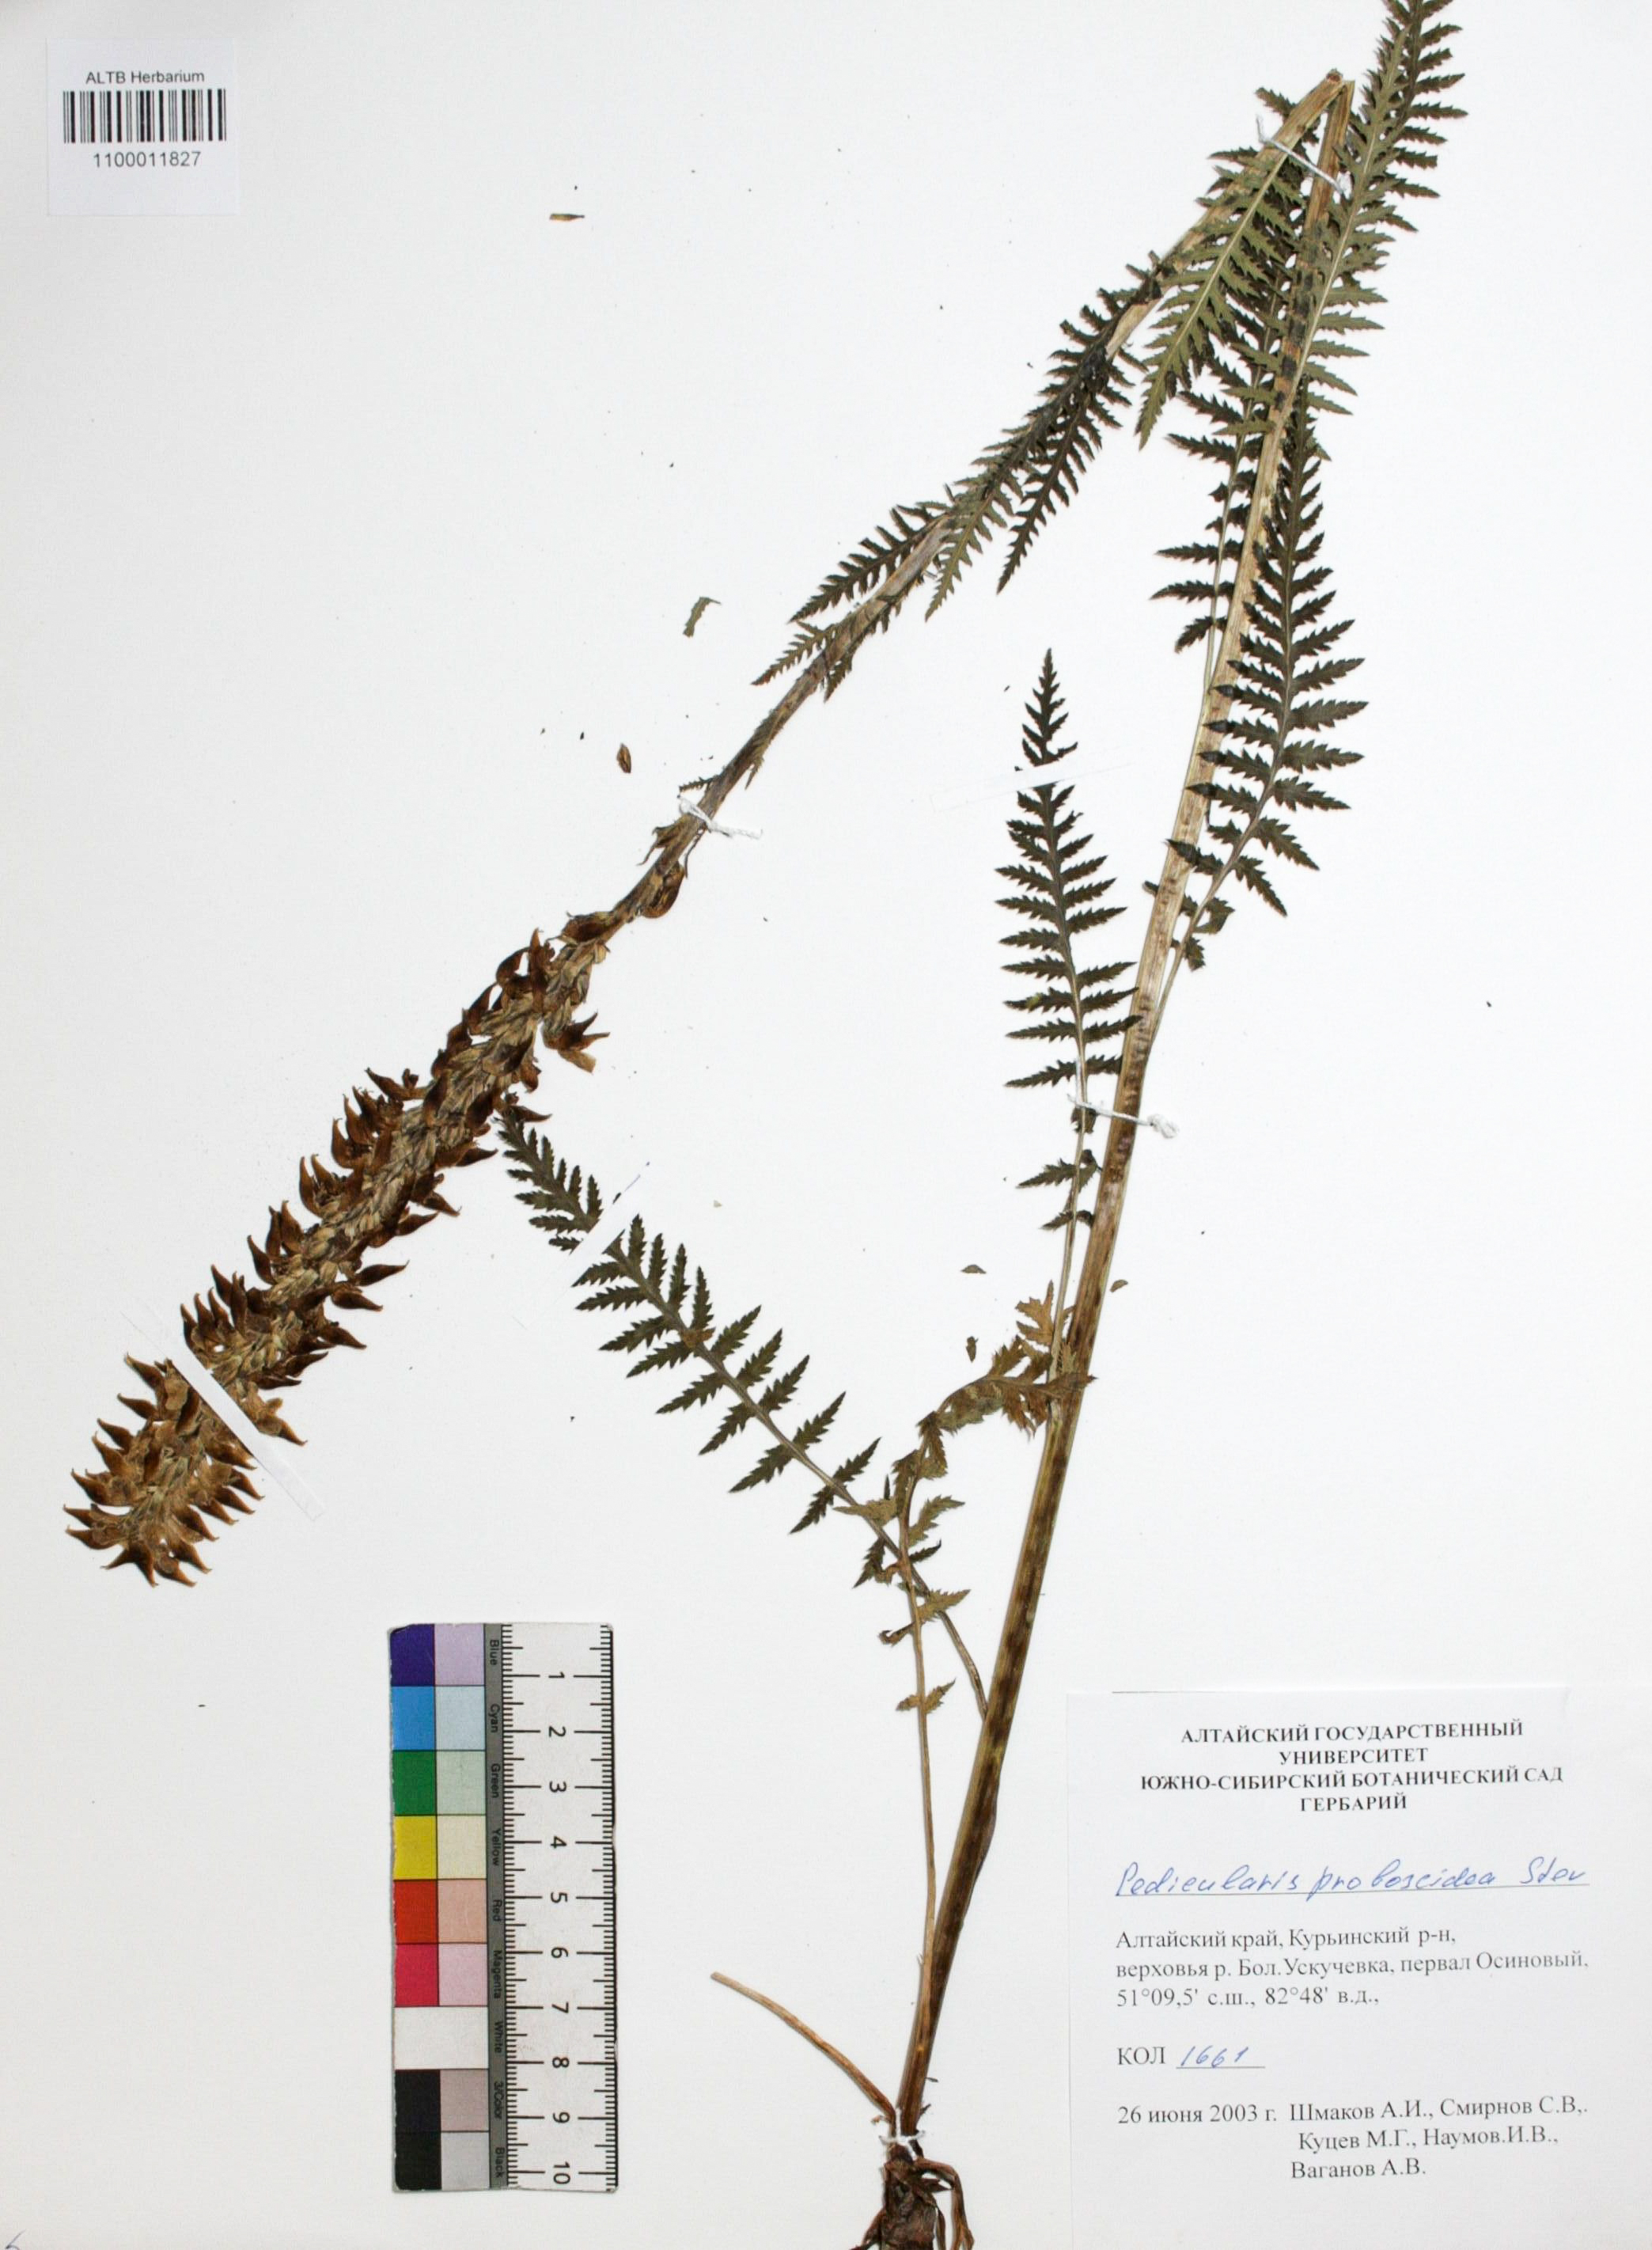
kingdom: Plantae
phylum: Tracheophyta
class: Magnoliopsida
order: Lamiales
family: Orobanchaceae
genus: Pedicularis
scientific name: Pedicularis proboscidea
